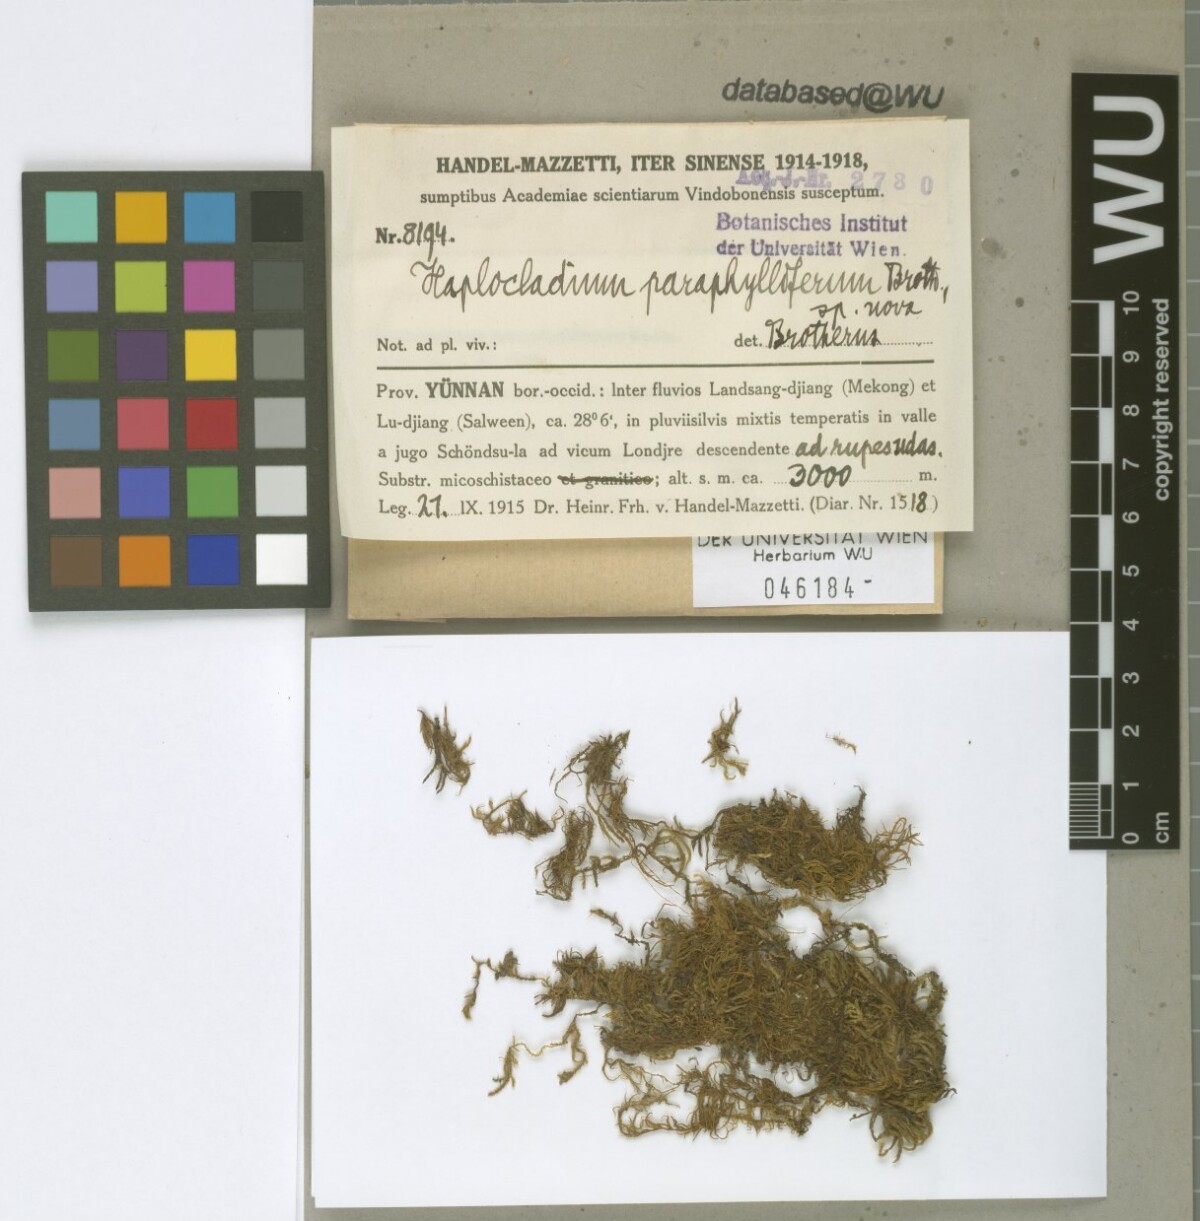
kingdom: Plantae
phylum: Bryophyta
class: Bryopsida
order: Hypnales
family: Leskeaceae
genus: Haplocladium
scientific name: Haplocladium microphyllum
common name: Tiny-leaved haplocladium
